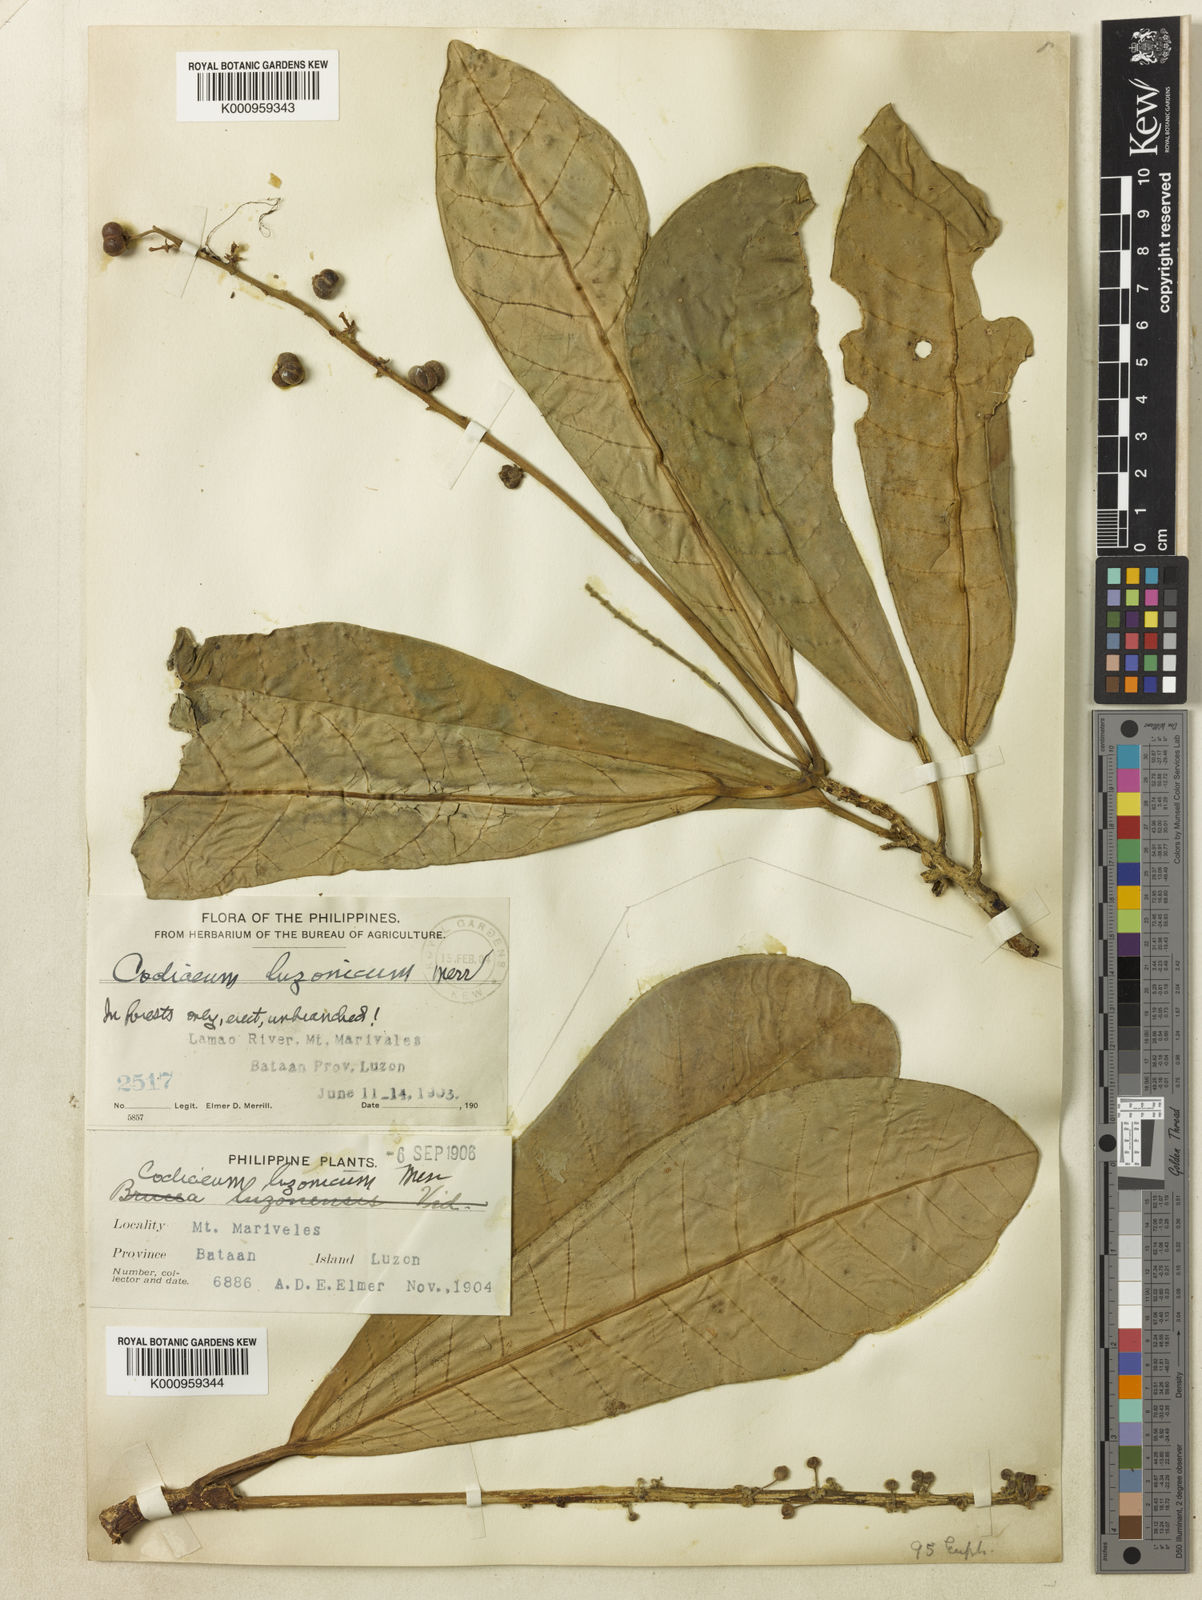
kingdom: Plantae
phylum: Tracheophyta
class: Magnoliopsida
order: Malpighiales
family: Euphorbiaceae
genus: Codiaeum
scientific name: Codiaeum luzonicum
